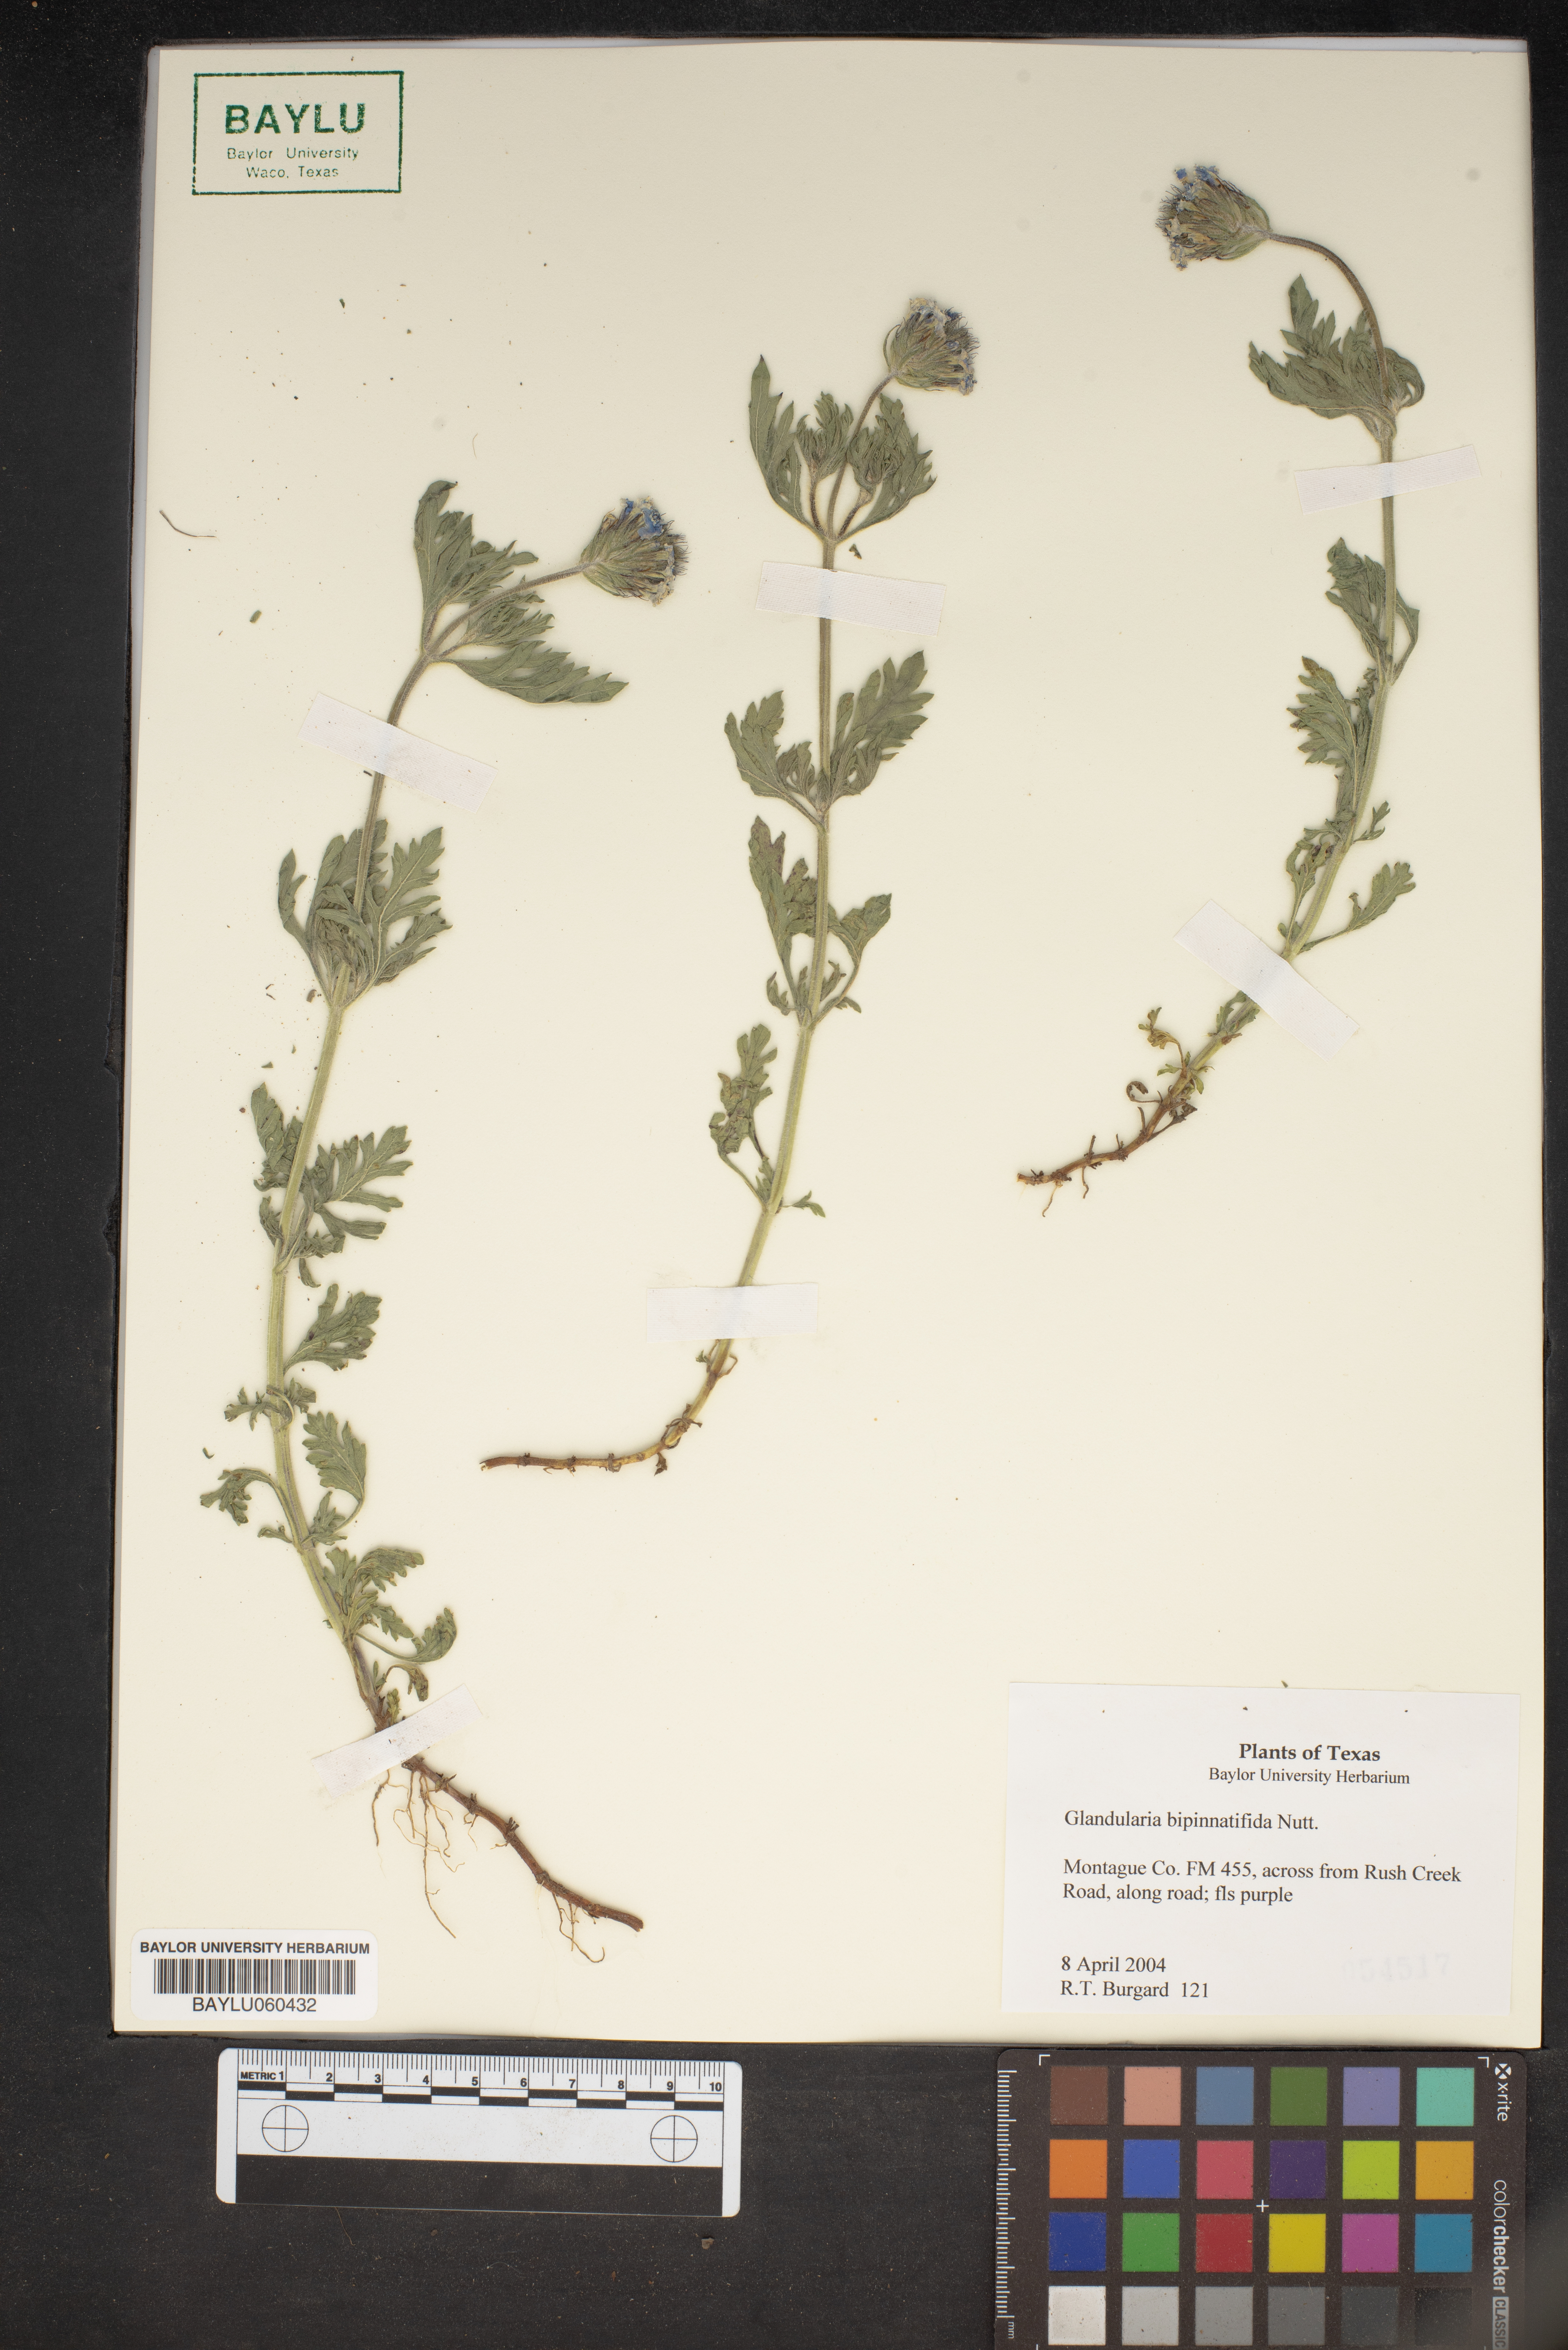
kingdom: Plantae
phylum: Tracheophyta
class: Magnoliopsida
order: Lamiales
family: Verbenaceae
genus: Verbena
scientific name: Verbena bipinnatifida
